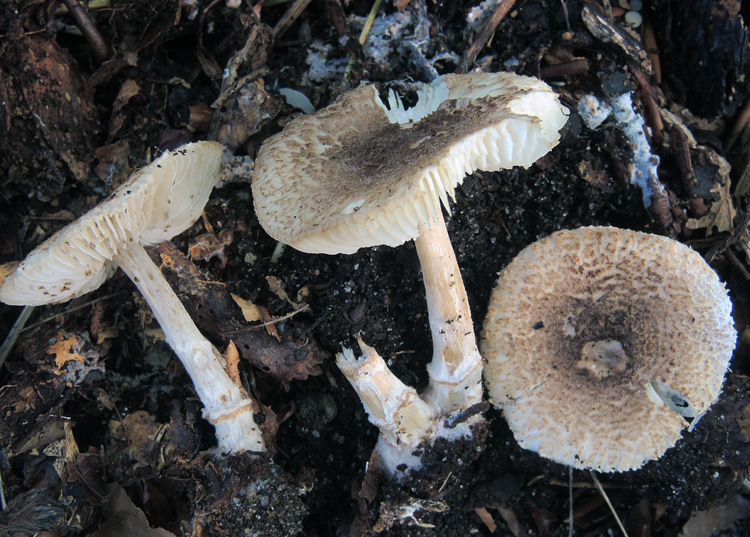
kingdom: Fungi
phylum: Basidiomycota
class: Agaricomycetes
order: Agaricales
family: Agaricaceae
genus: Lepiota
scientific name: Lepiota subgracilis
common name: elegant parasolhat
